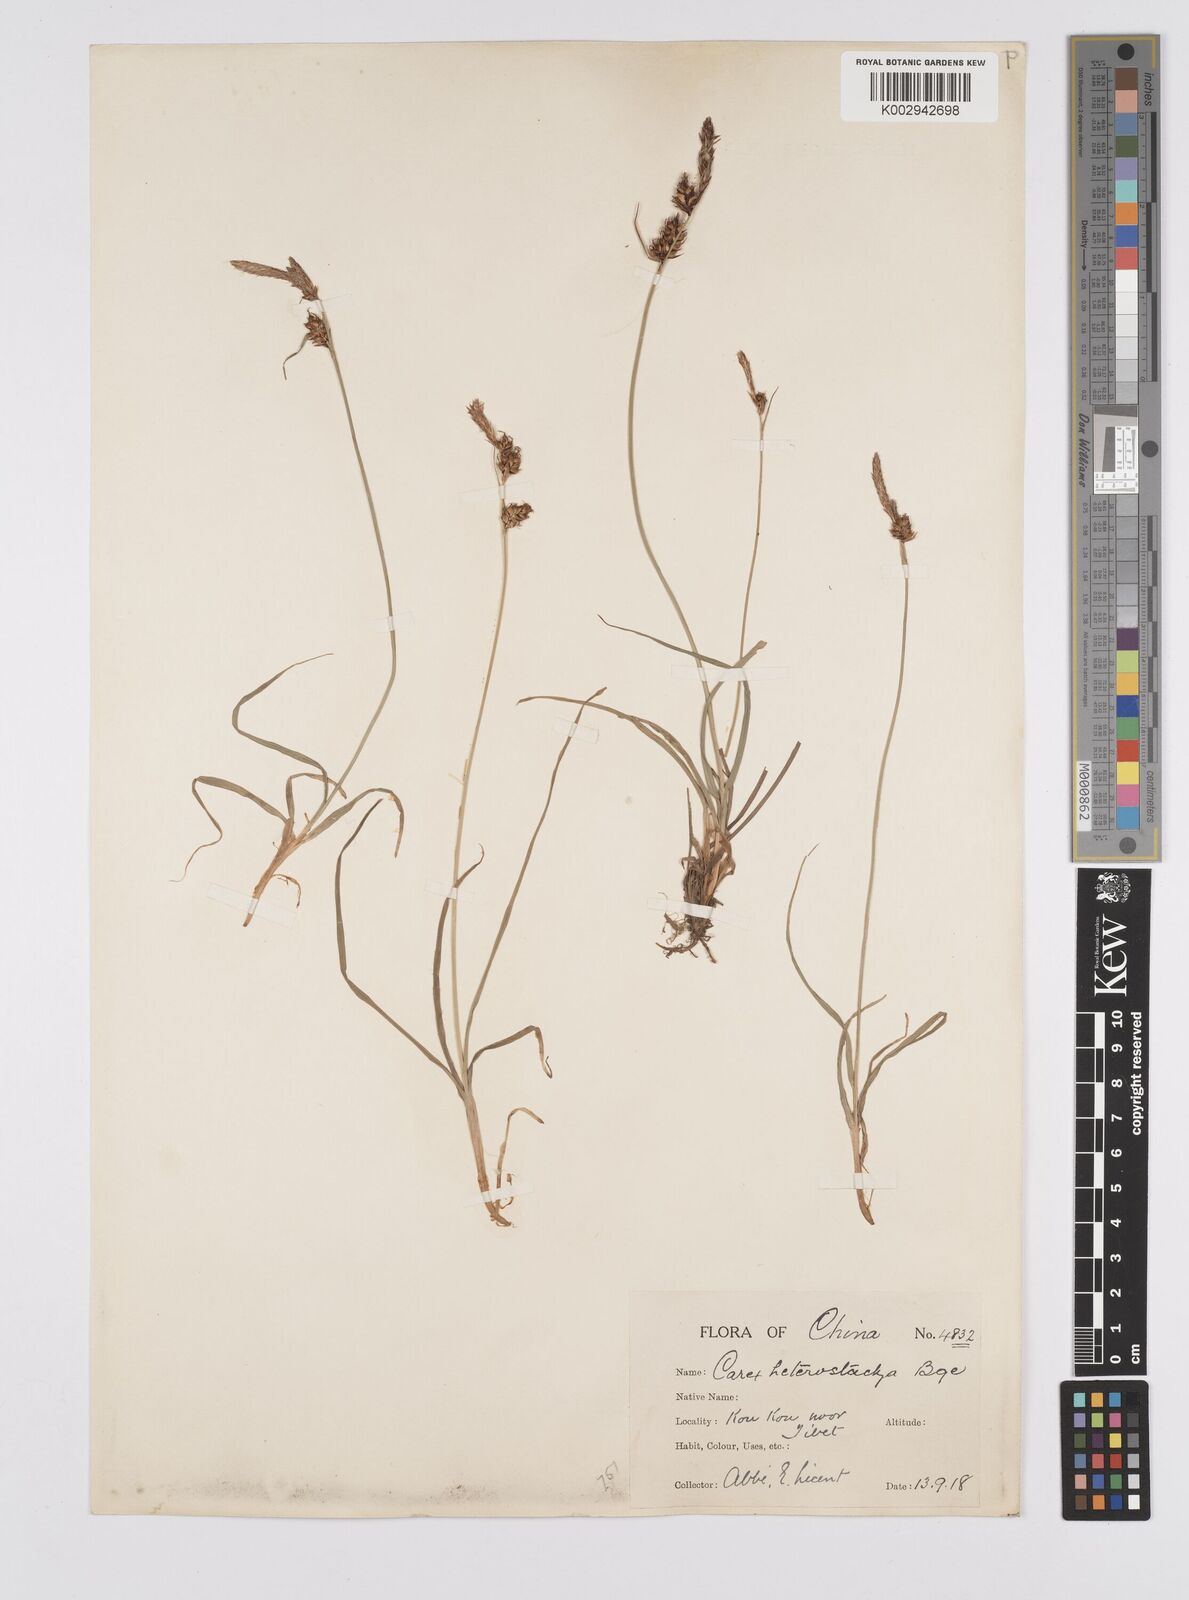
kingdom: Plantae
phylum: Tracheophyta
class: Liliopsida
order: Poales
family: Cyperaceae
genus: Carex
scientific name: Carex heterostachya
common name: Different-spike sedge
